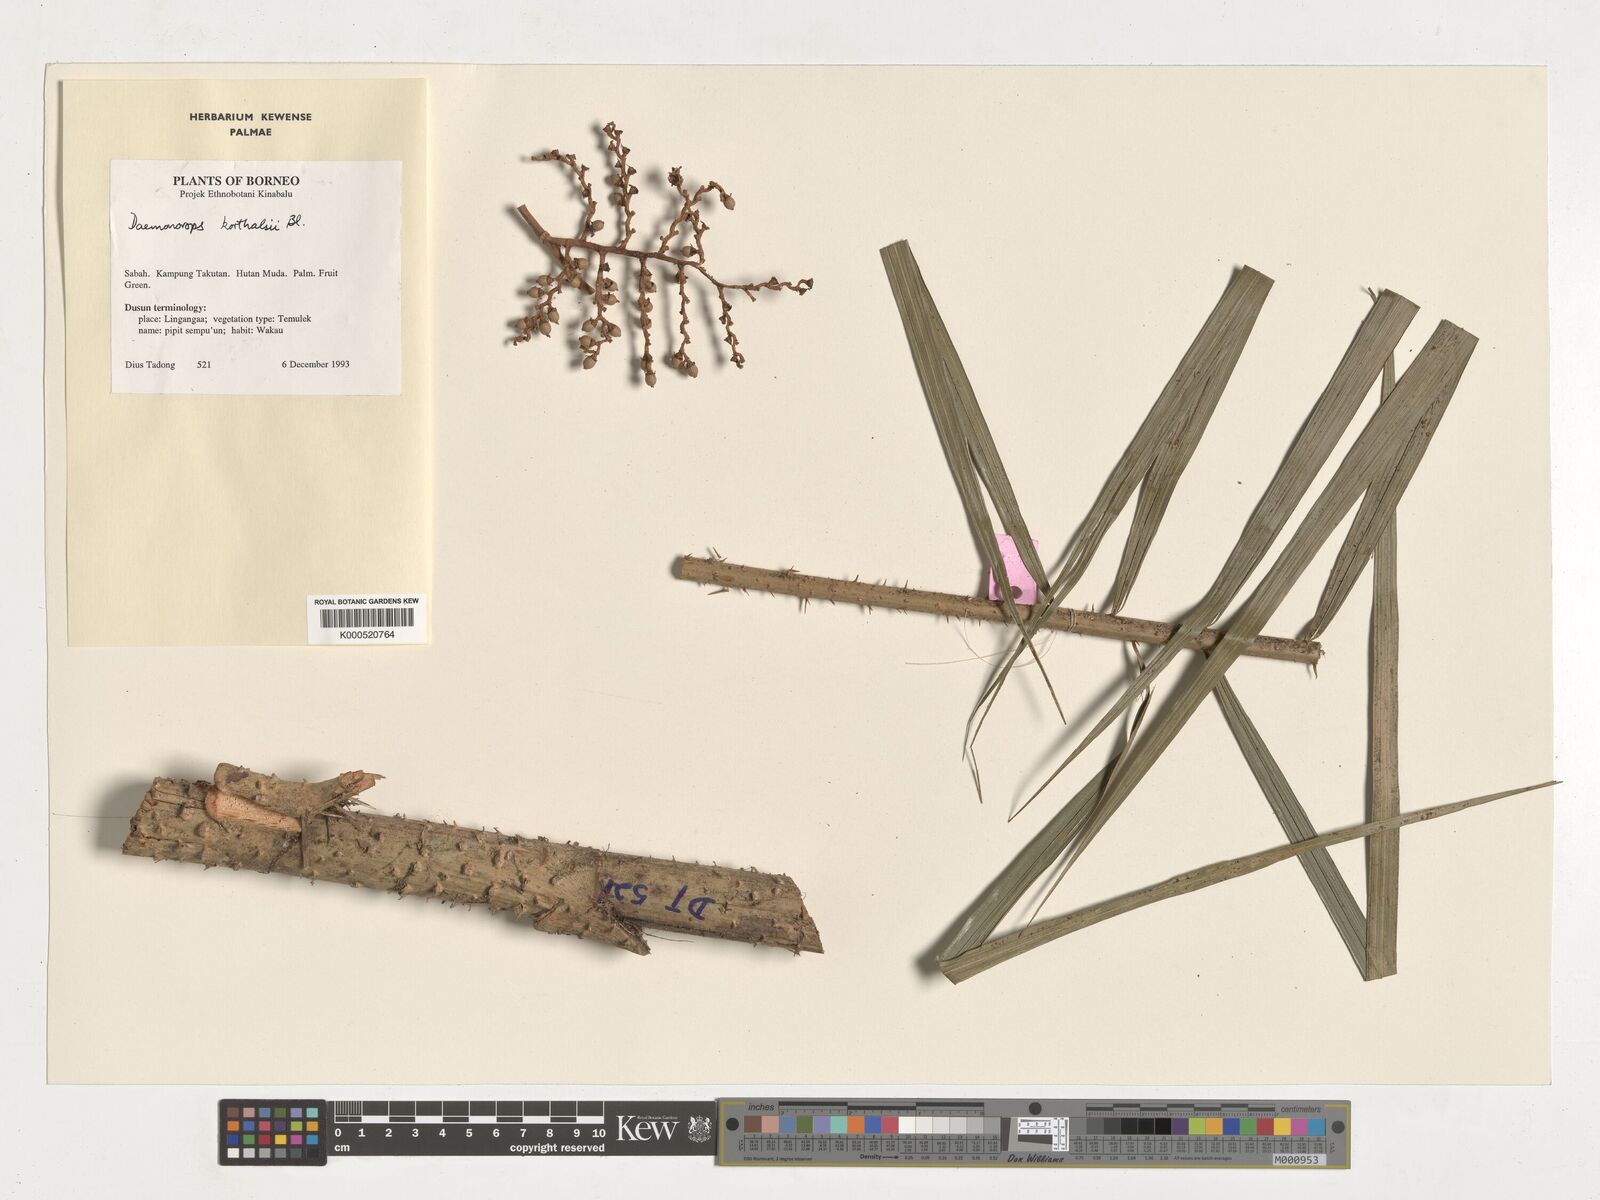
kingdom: Plantae
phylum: Tracheophyta
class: Liliopsida
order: Arecales
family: Arecaceae
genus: Calamus
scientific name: Calamus hirsutus
